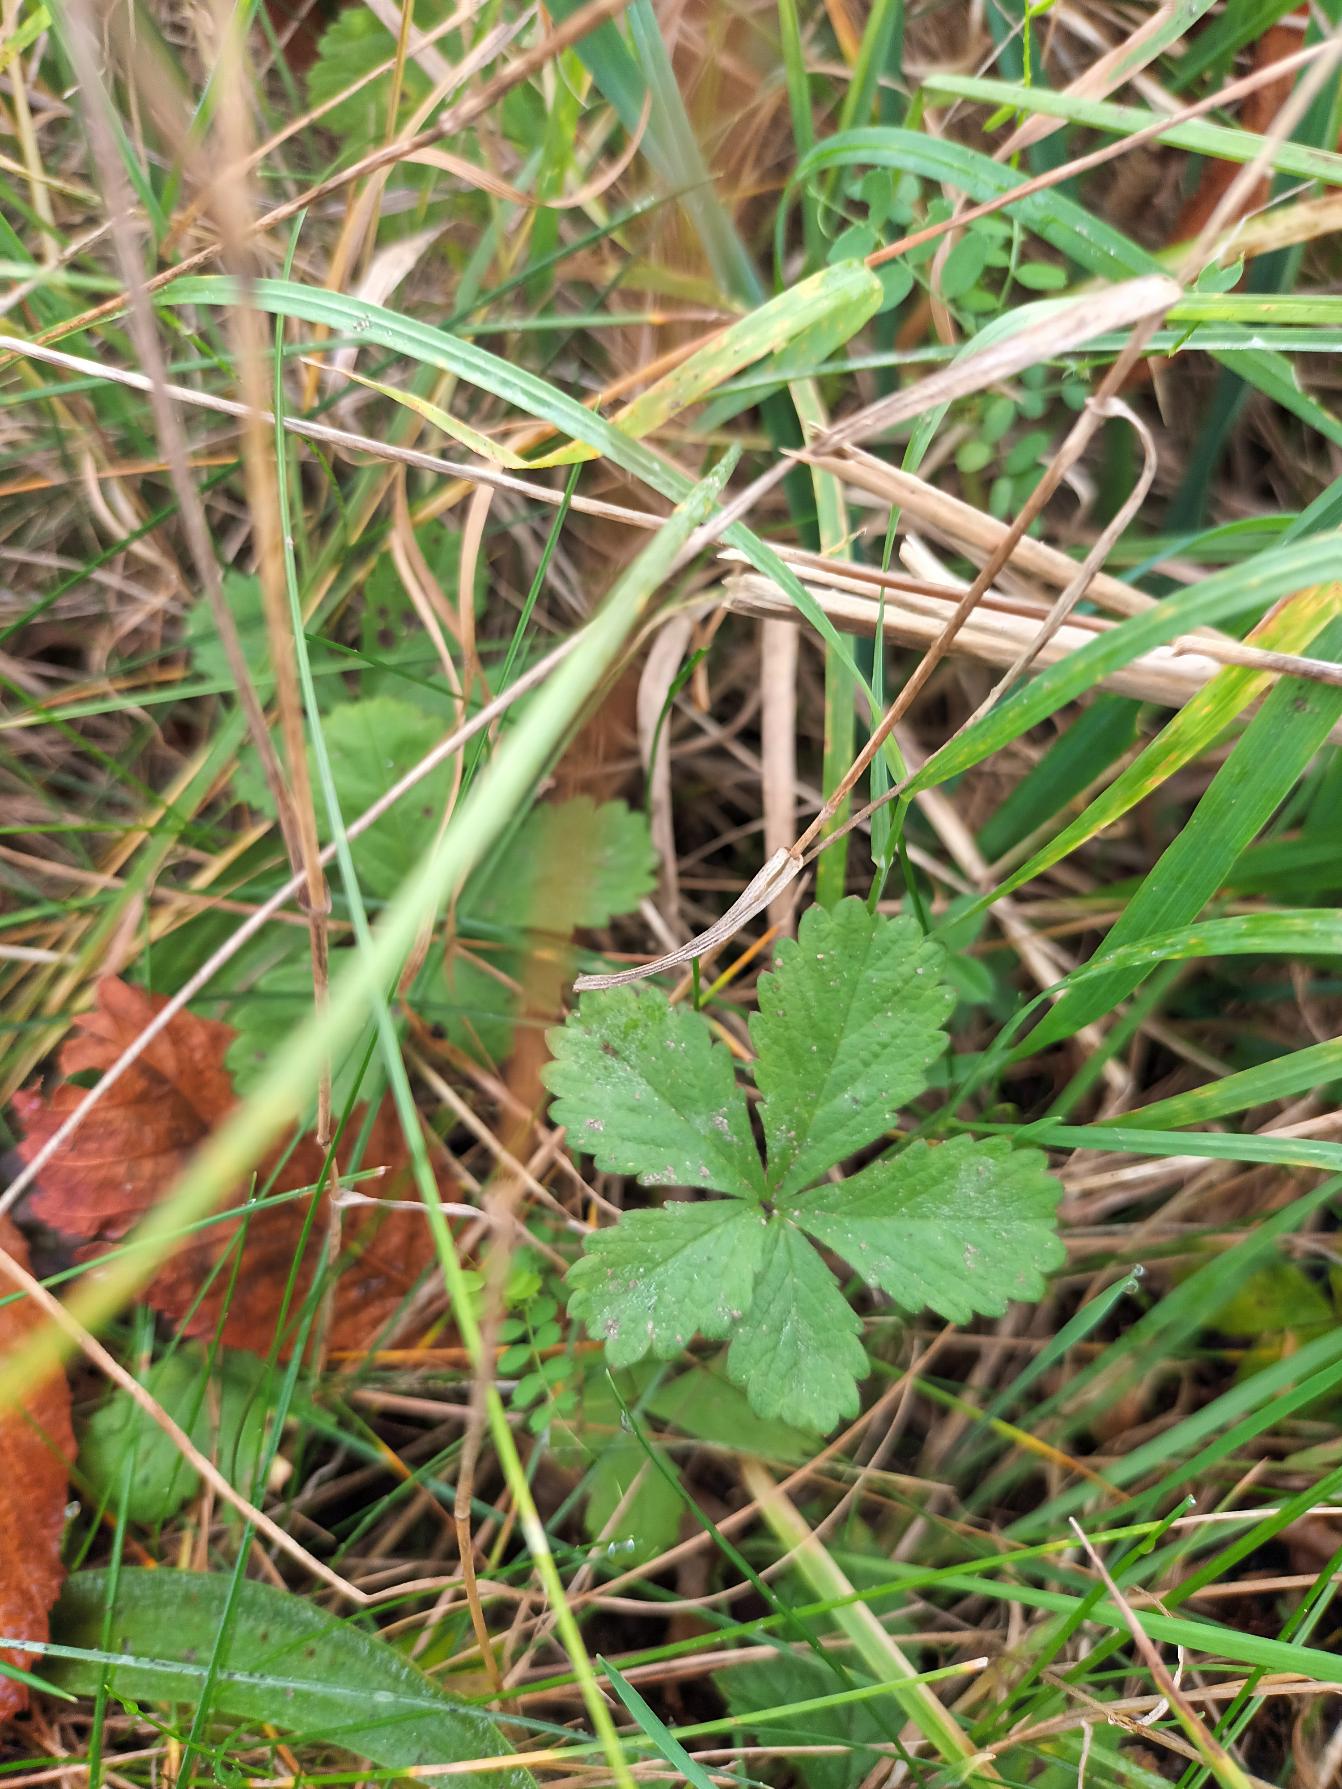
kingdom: Plantae
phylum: Tracheophyta
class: Magnoliopsida
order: Rosales
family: Rosaceae
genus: Potentilla
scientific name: Potentilla reptans
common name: Krybende potentil
